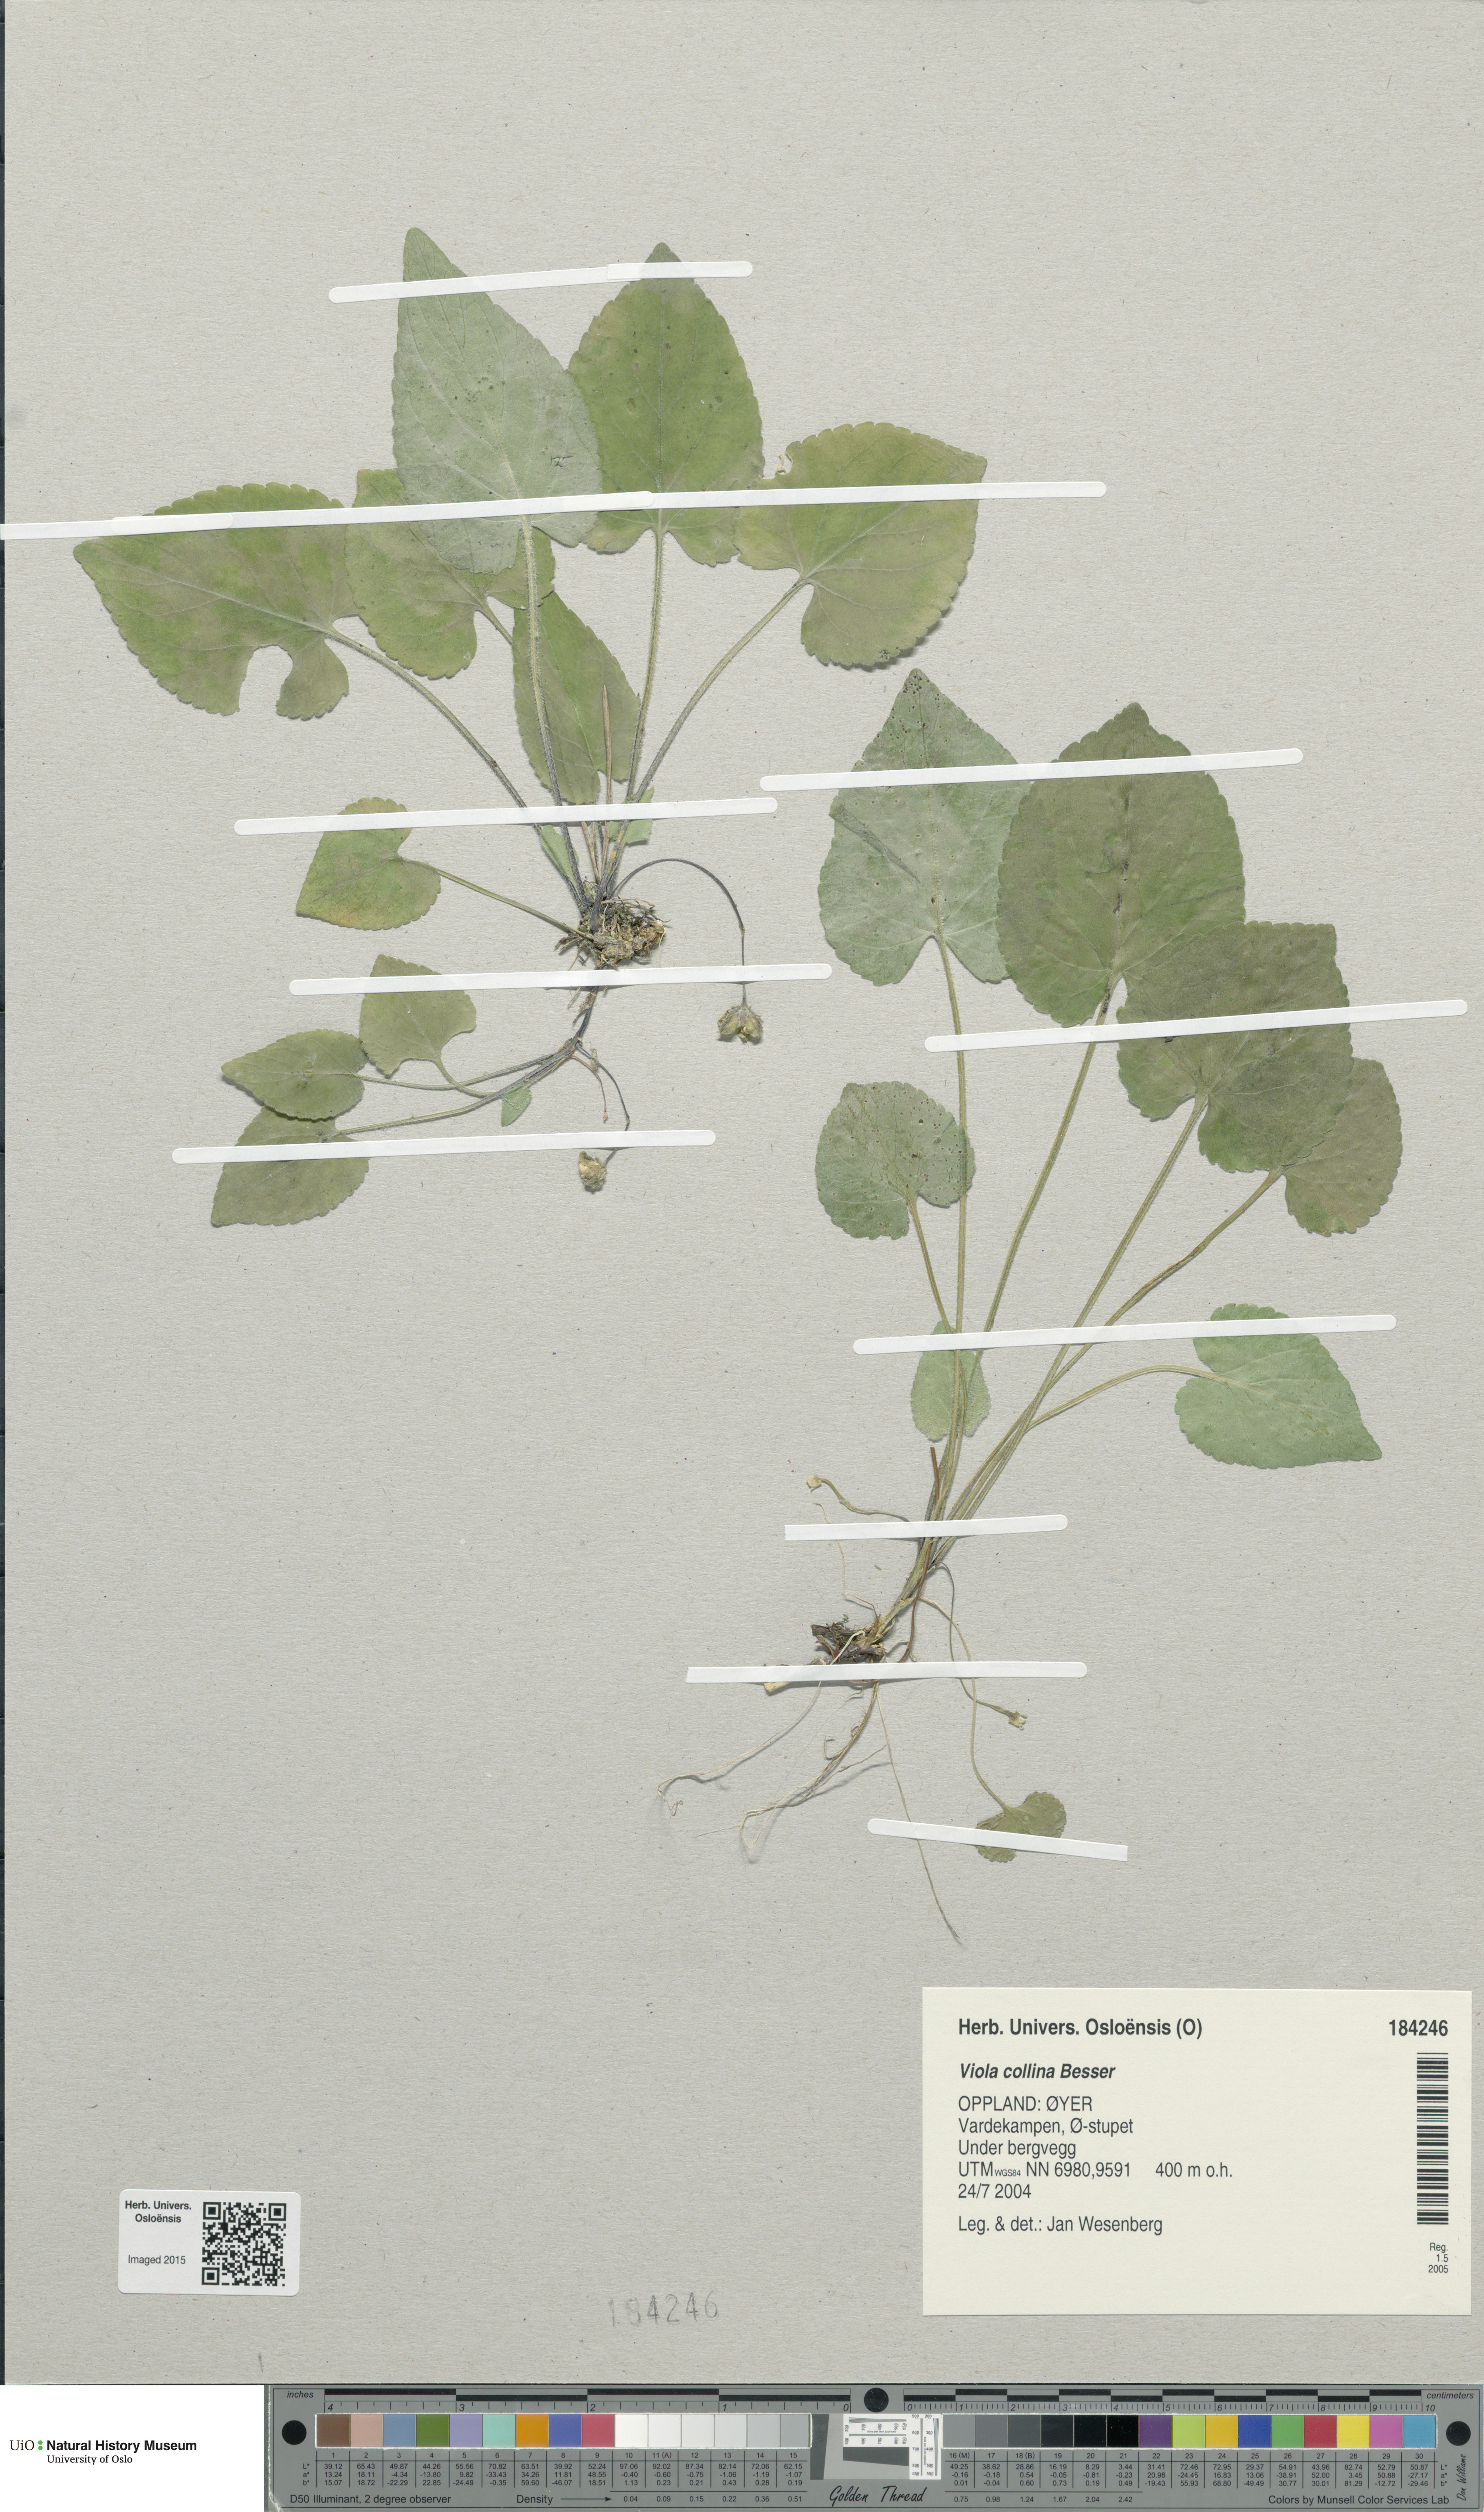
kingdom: Plantae
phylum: Tracheophyta
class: Magnoliopsida
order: Malpighiales
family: Violaceae
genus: Viola
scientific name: Viola collina
